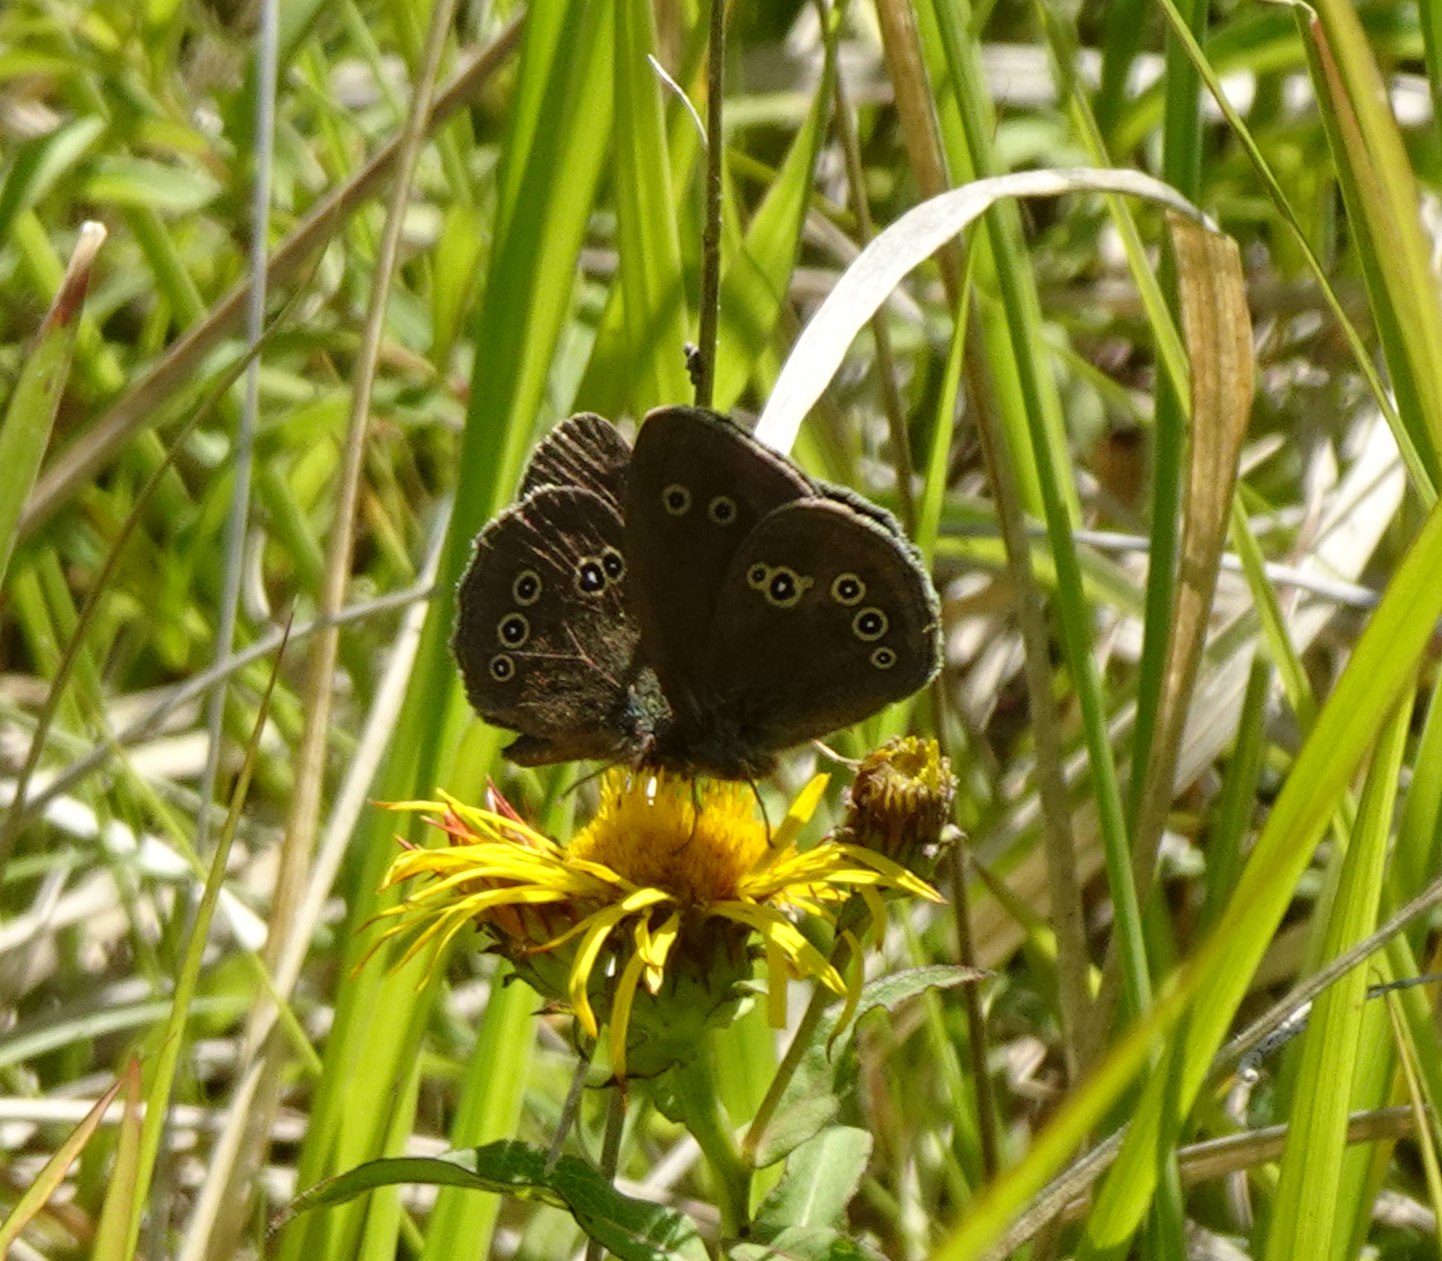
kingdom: Animalia
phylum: Arthropoda
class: Insecta
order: Lepidoptera
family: Nymphalidae
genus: Aphantopus
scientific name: Aphantopus hyperantus
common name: Engrandøje
